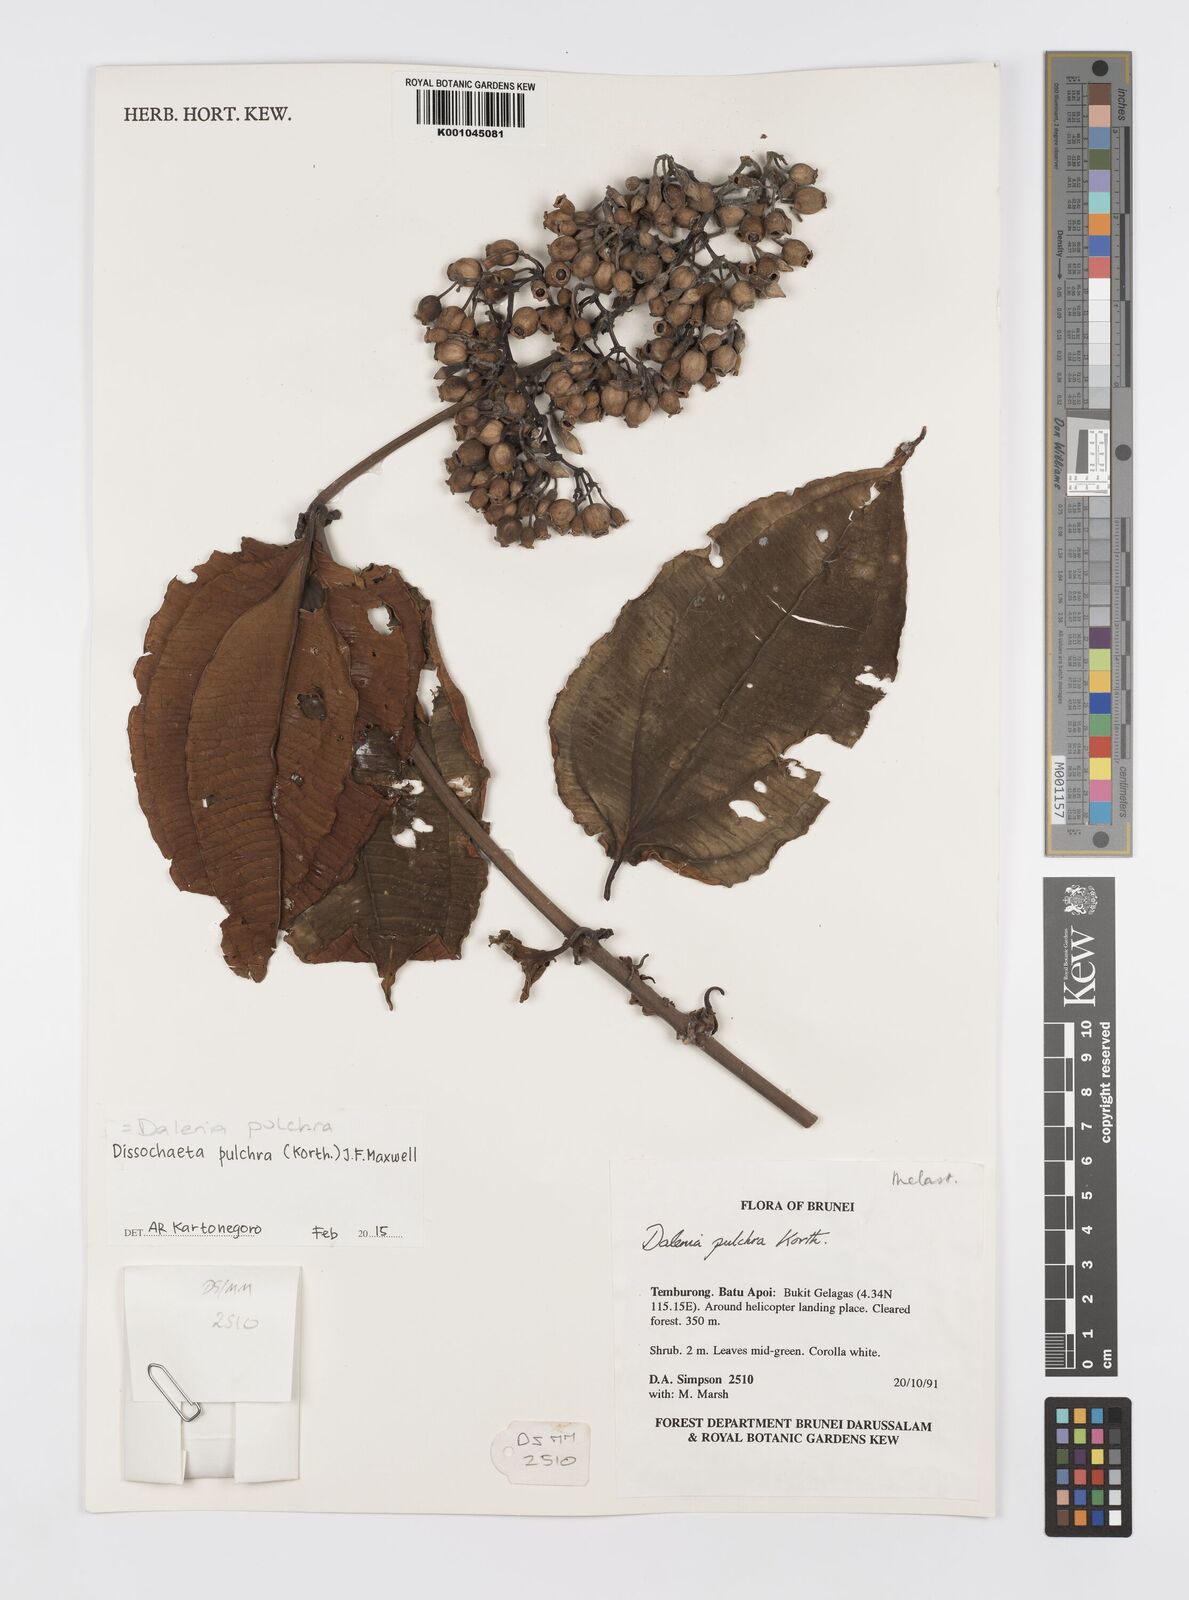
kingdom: Plantae
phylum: Tracheophyta
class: Magnoliopsida
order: Myrtales
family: Melastomataceae
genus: Dalenia
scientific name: Dalenia pulchra
